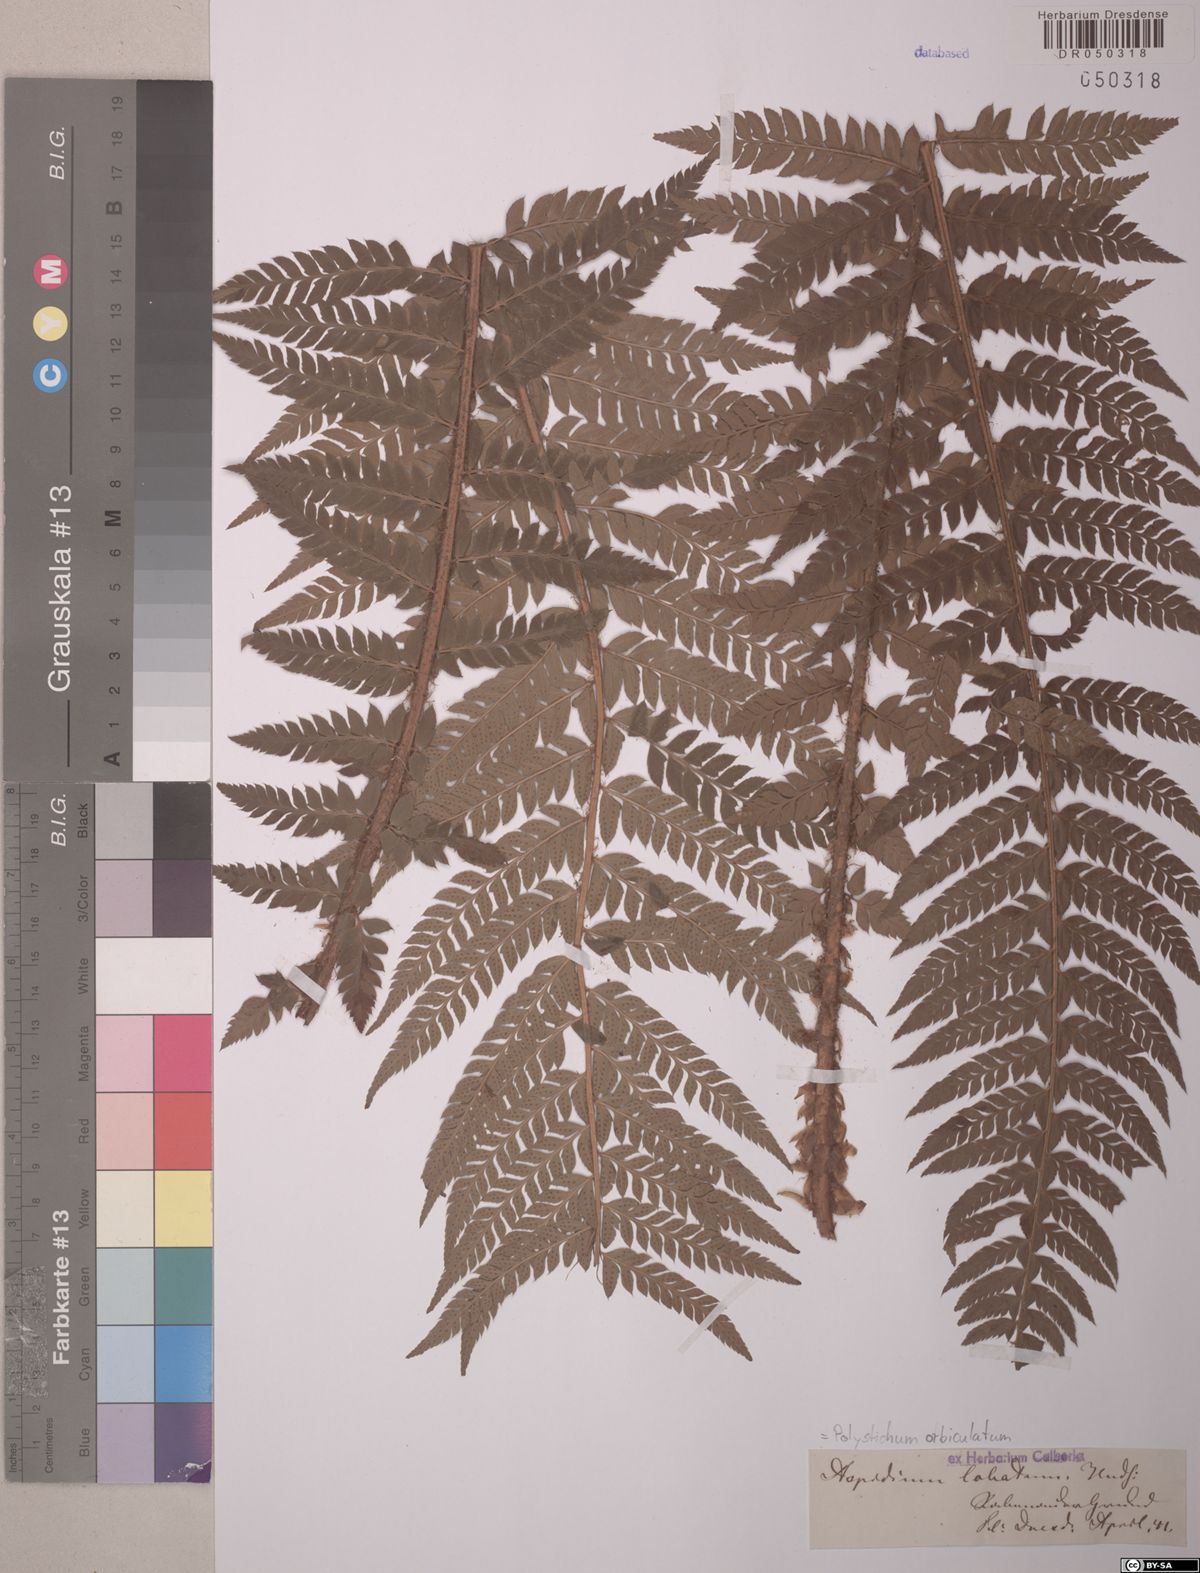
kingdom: Plantae
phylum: Tracheophyta
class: Polypodiopsida
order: Polypodiales
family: Dryopteridaceae
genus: Polystichum
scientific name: Polystichum aculeatum
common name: Hard shield-fern
